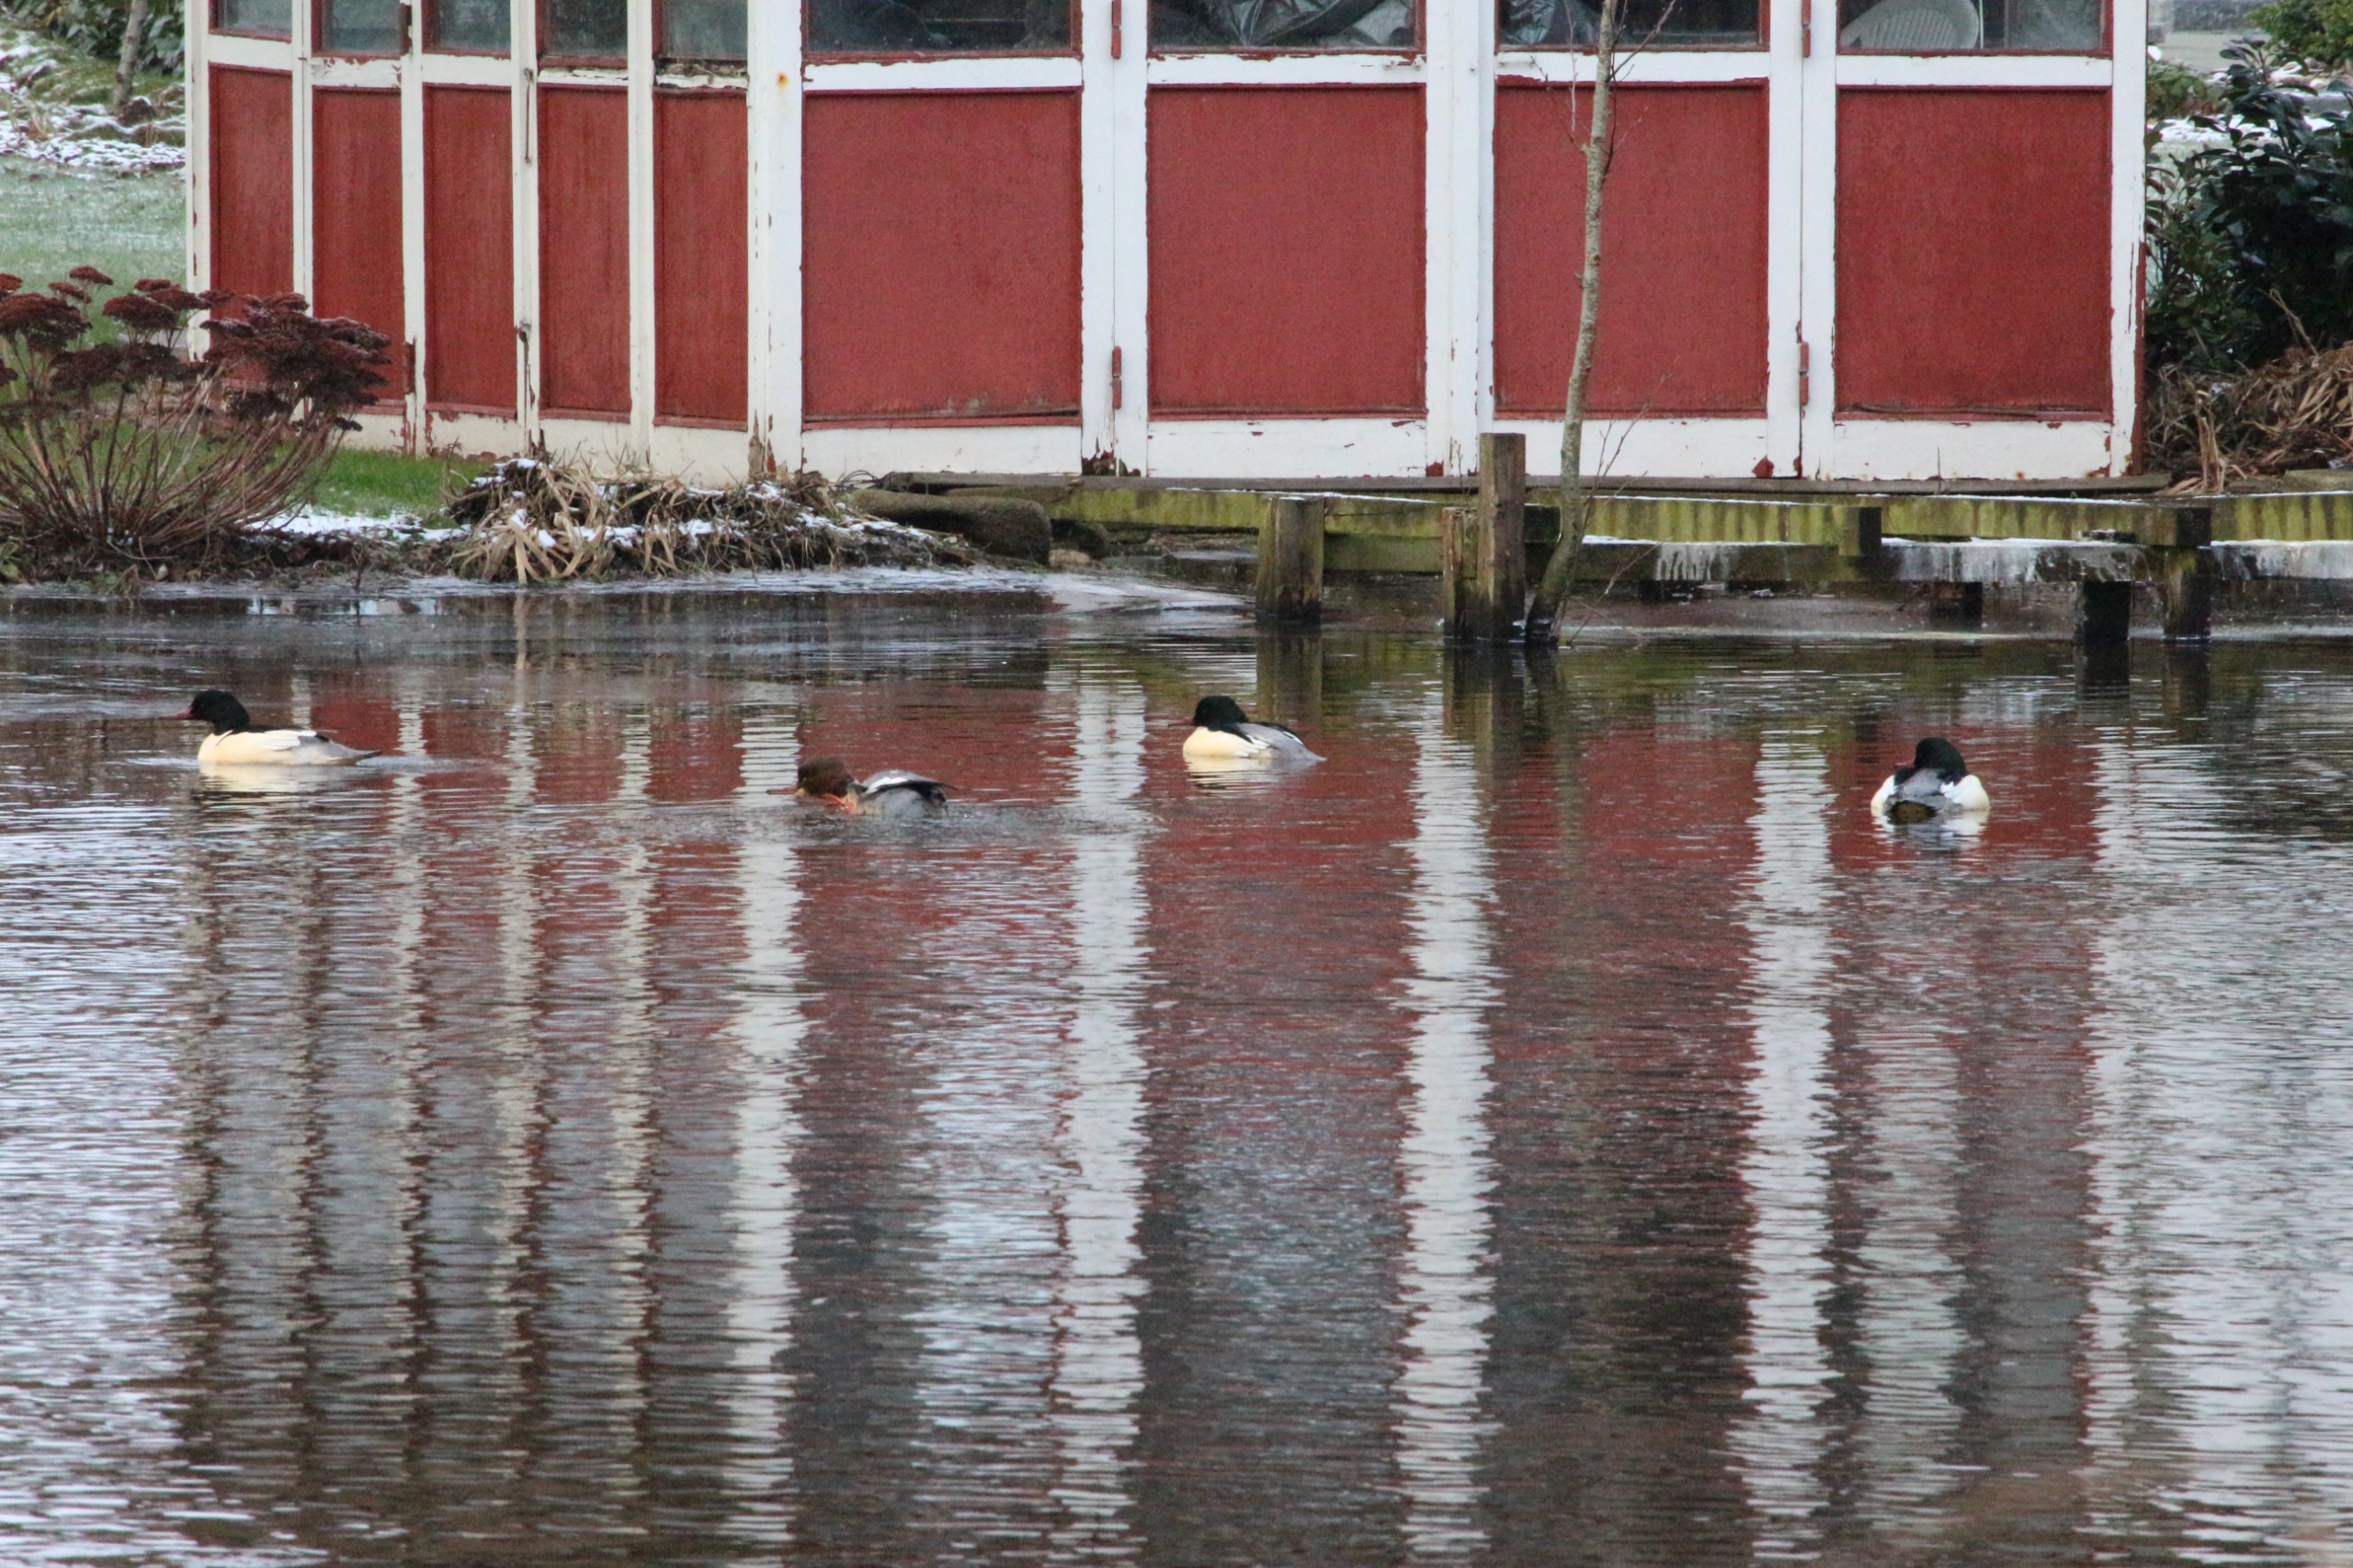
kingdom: Animalia
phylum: Chordata
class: Aves
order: Anseriformes
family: Anatidae
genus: Mergus
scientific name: Mergus merganser
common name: Stor skallesluger
